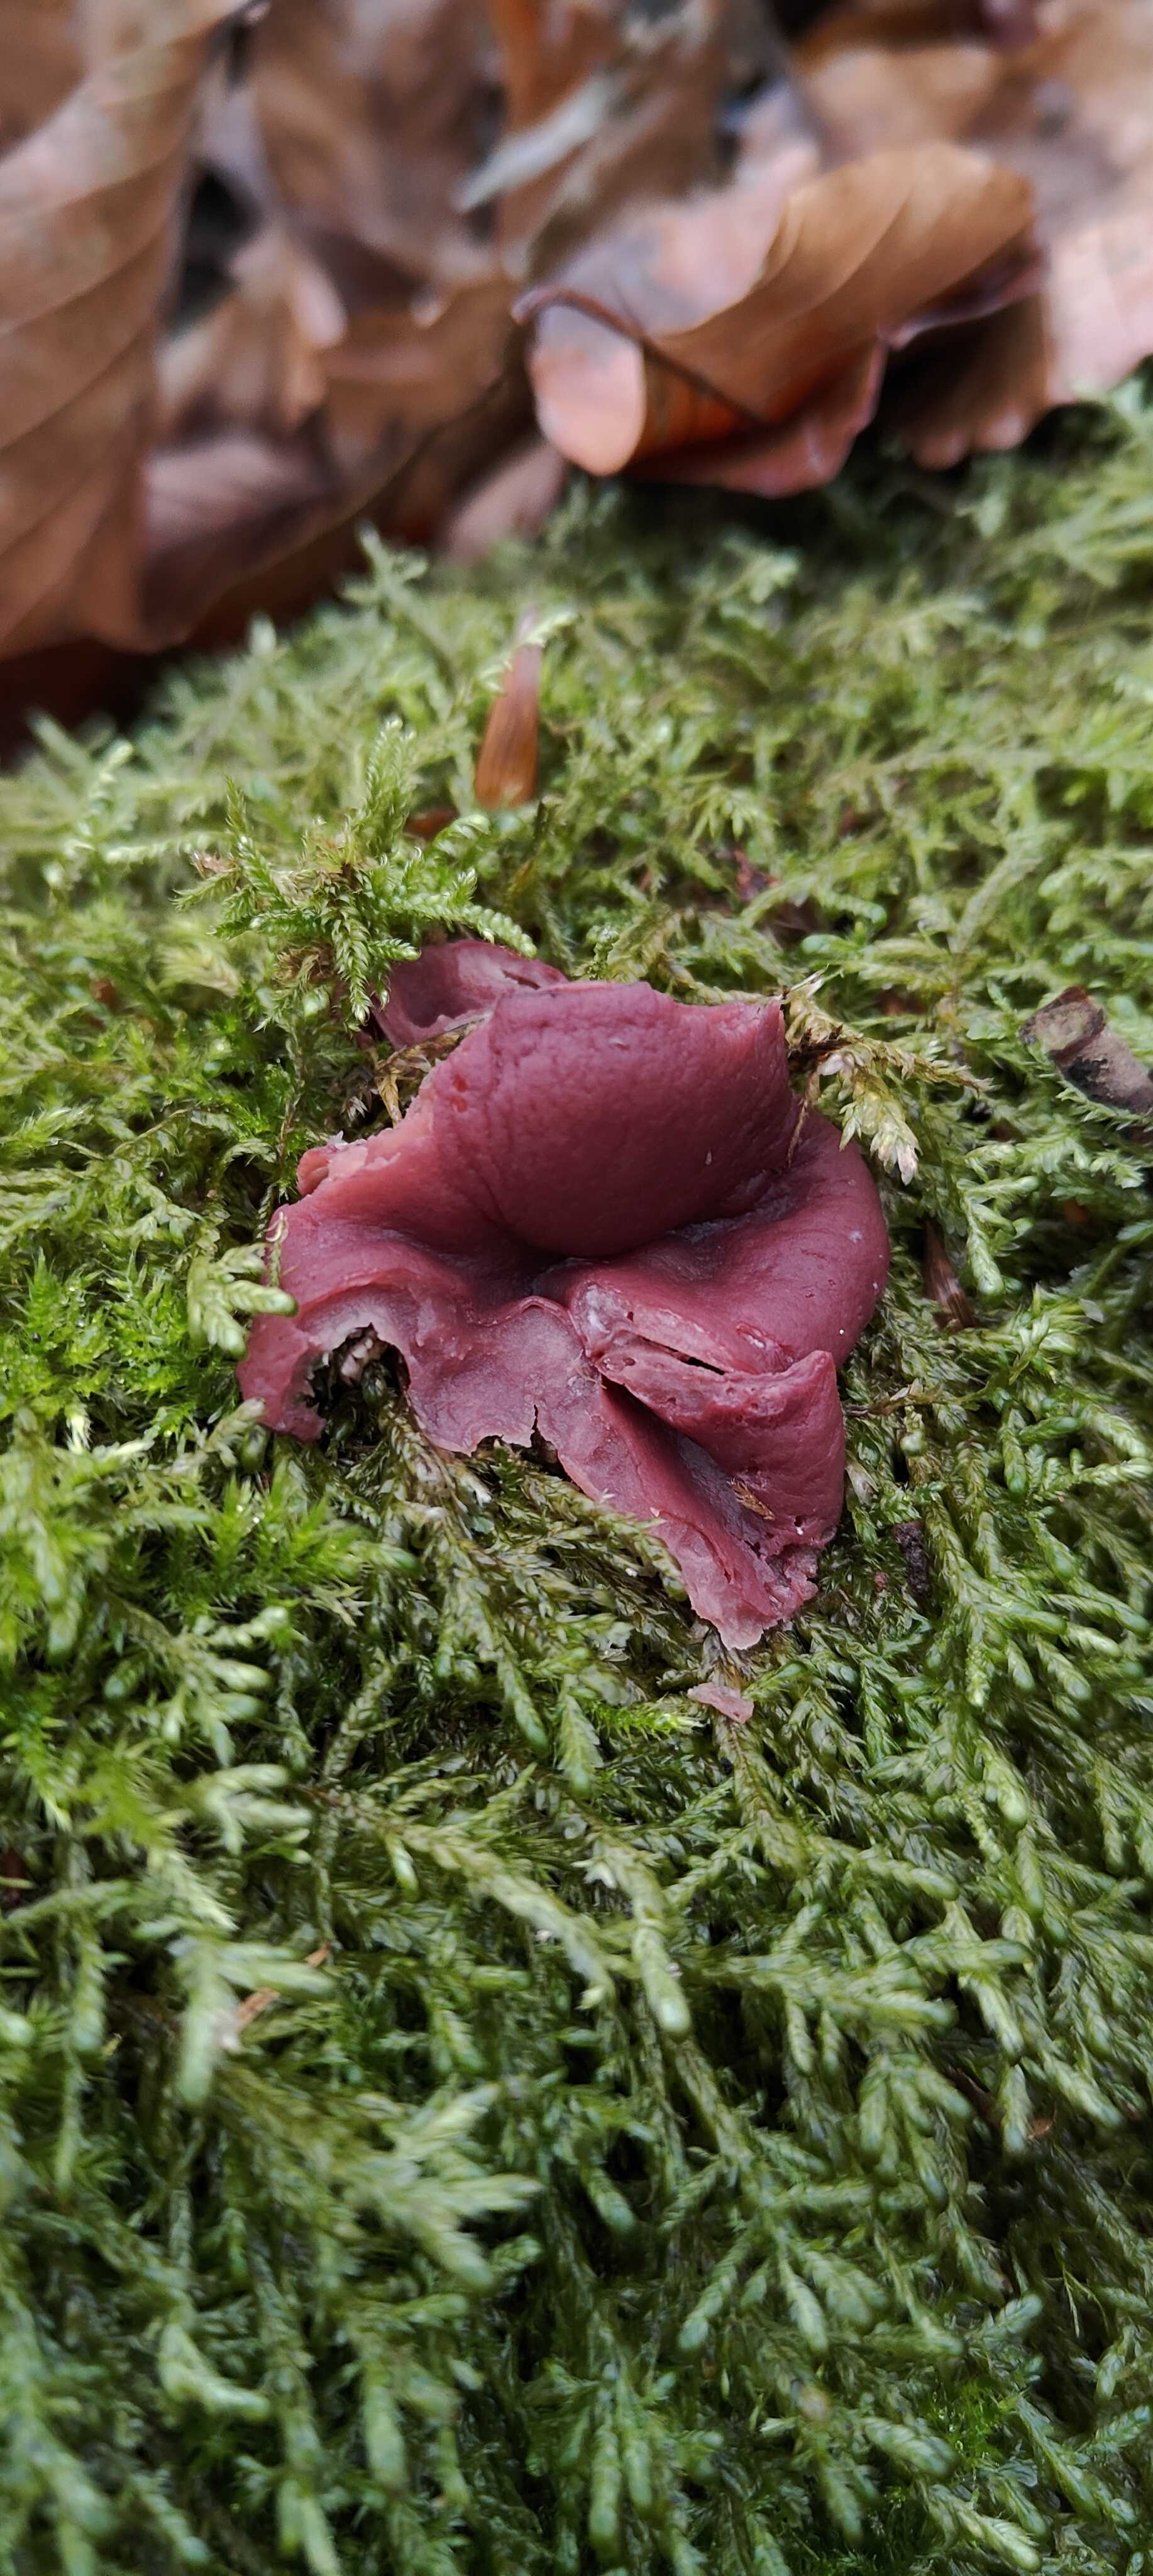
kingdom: Fungi
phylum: Ascomycota
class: Leotiomycetes
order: Helotiales
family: Gelatinodiscaceae
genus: Ascocoryne
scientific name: Ascocoryne cylichnium
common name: stor sejskive
